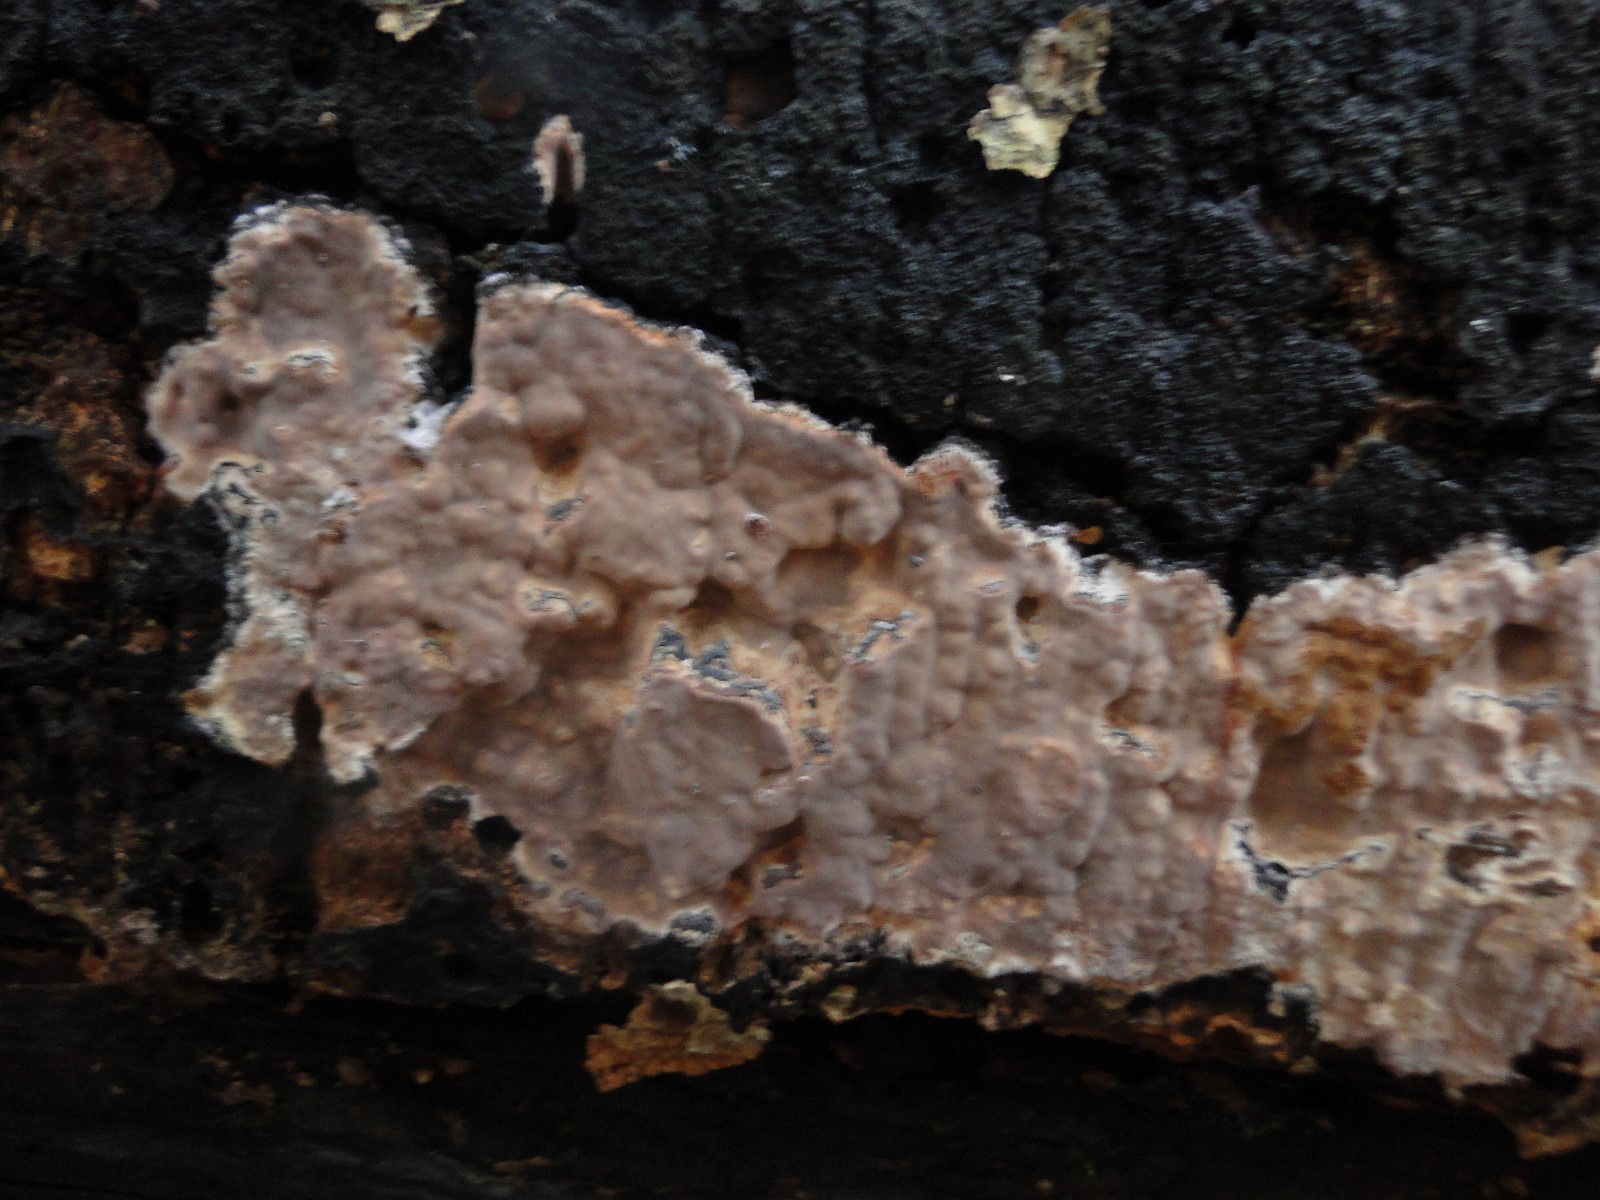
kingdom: Fungi
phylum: Basidiomycota
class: Agaricomycetes
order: Russulales
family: Peniophoraceae
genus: Scytinostroma
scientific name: Scytinostroma hemidichophyticum
